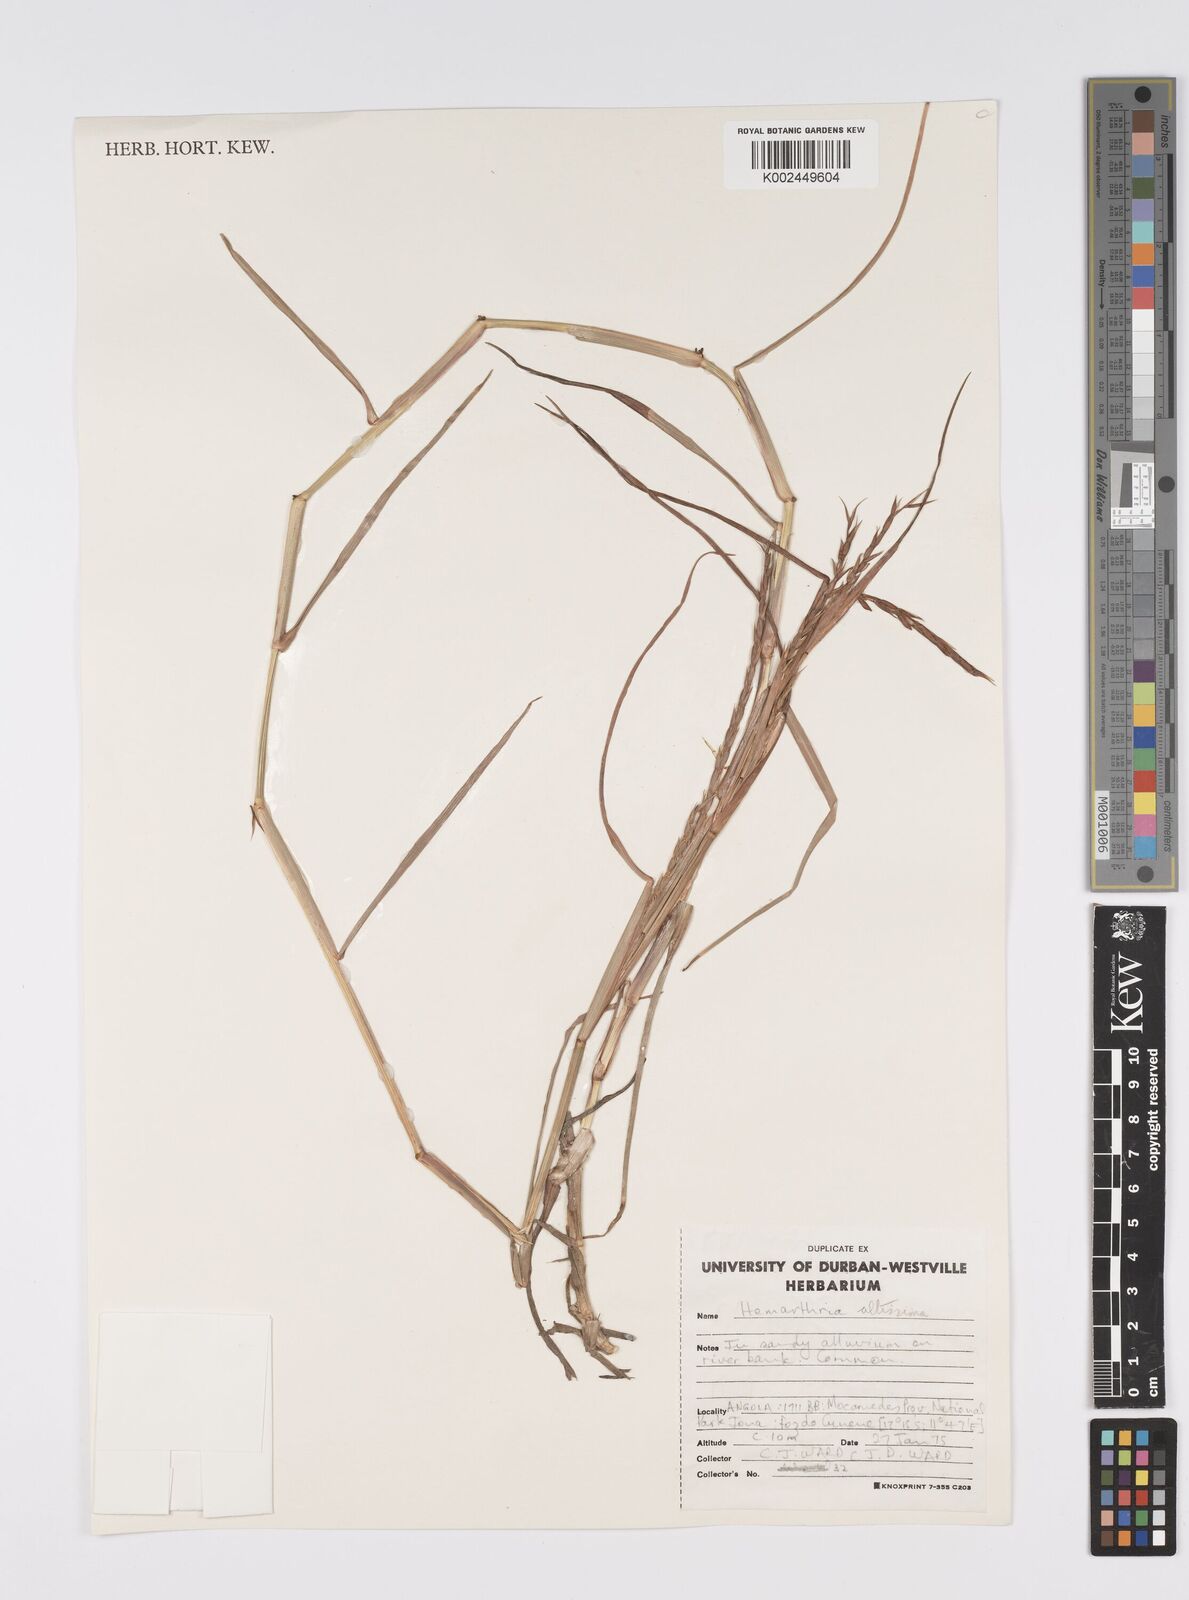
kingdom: Plantae
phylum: Tracheophyta
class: Liliopsida
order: Poales
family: Poaceae
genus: Hemarthria
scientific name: Hemarthria altissima
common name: African jointgrass
